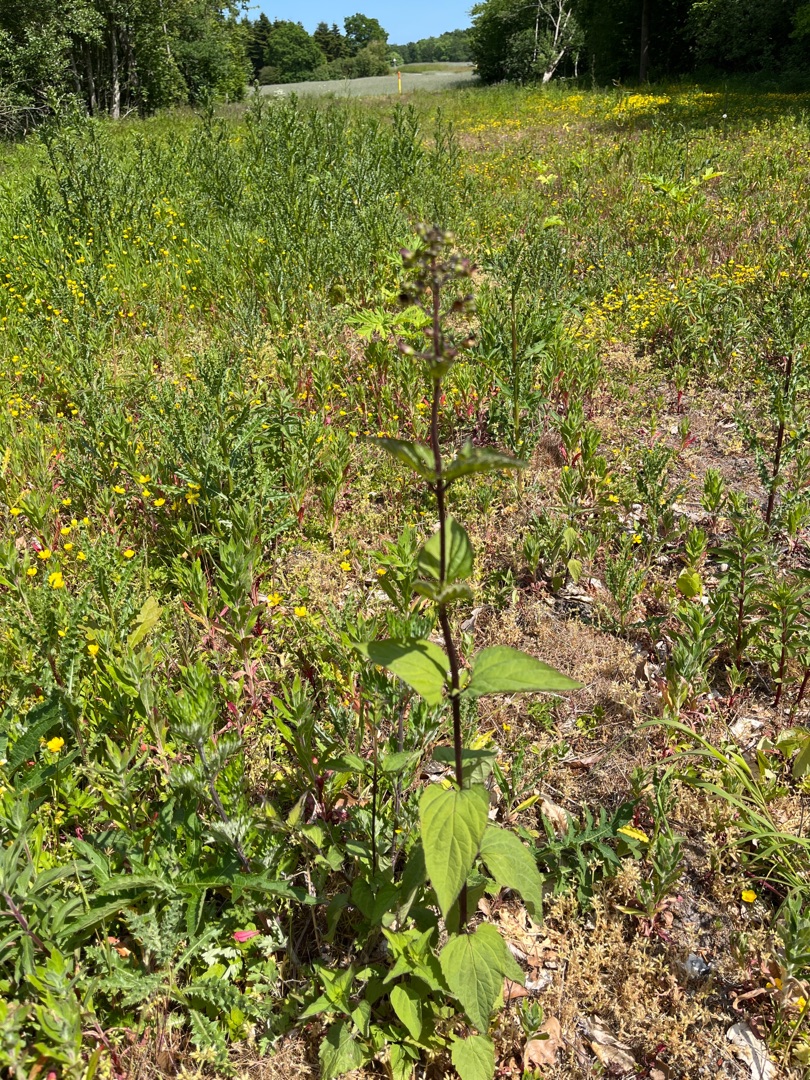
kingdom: Plantae
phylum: Tracheophyta
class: Magnoliopsida
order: Lamiales
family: Scrophulariaceae
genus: Scrophularia
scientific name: Scrophularia nodosa
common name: Knoldet brunrod
